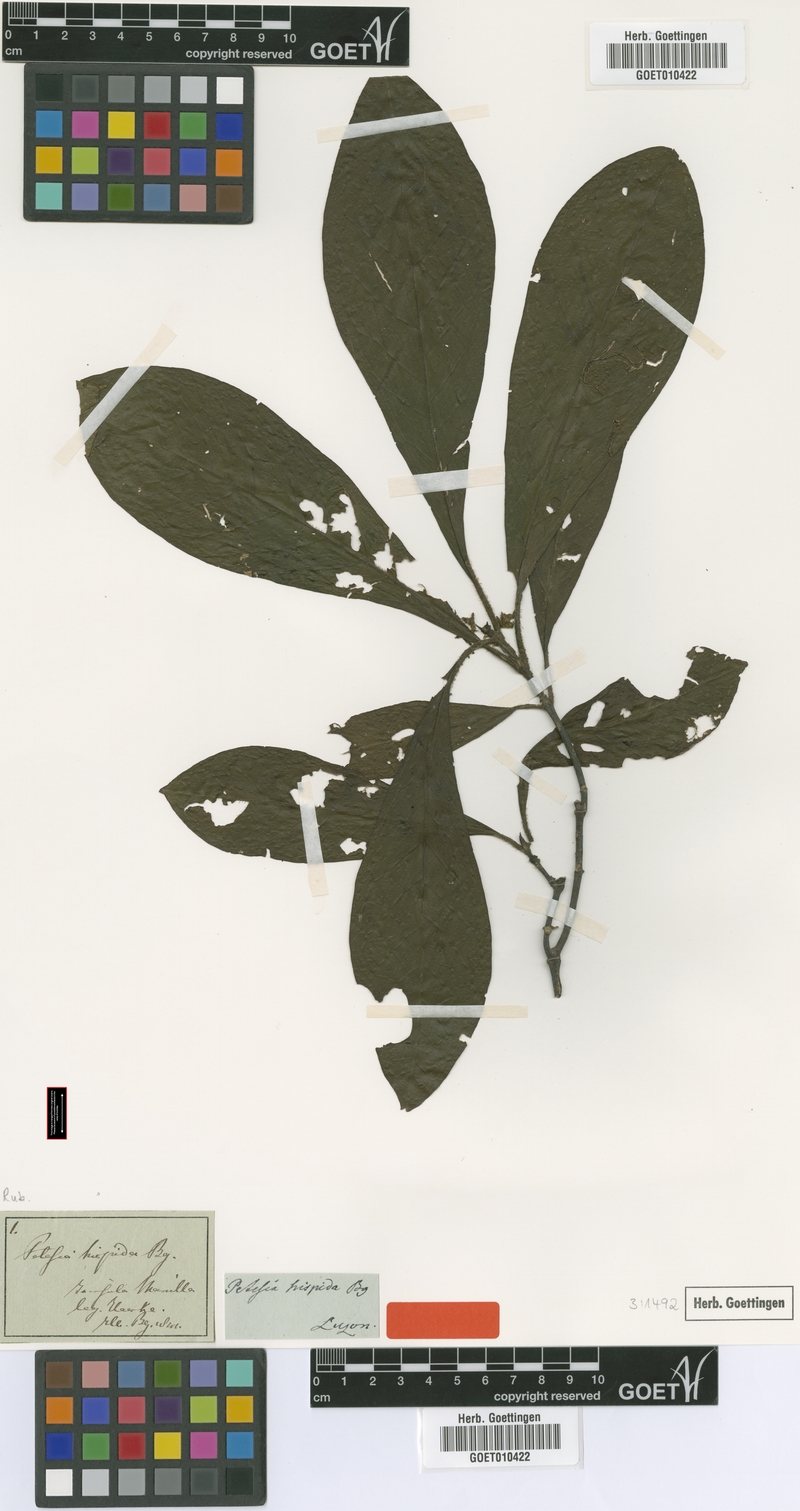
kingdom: Plantae
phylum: Tracheophyta
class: Magnoliopsida
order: Gentianales
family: Rubiaceae
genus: Rondeletia
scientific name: Rondeletia Petesia hispida
